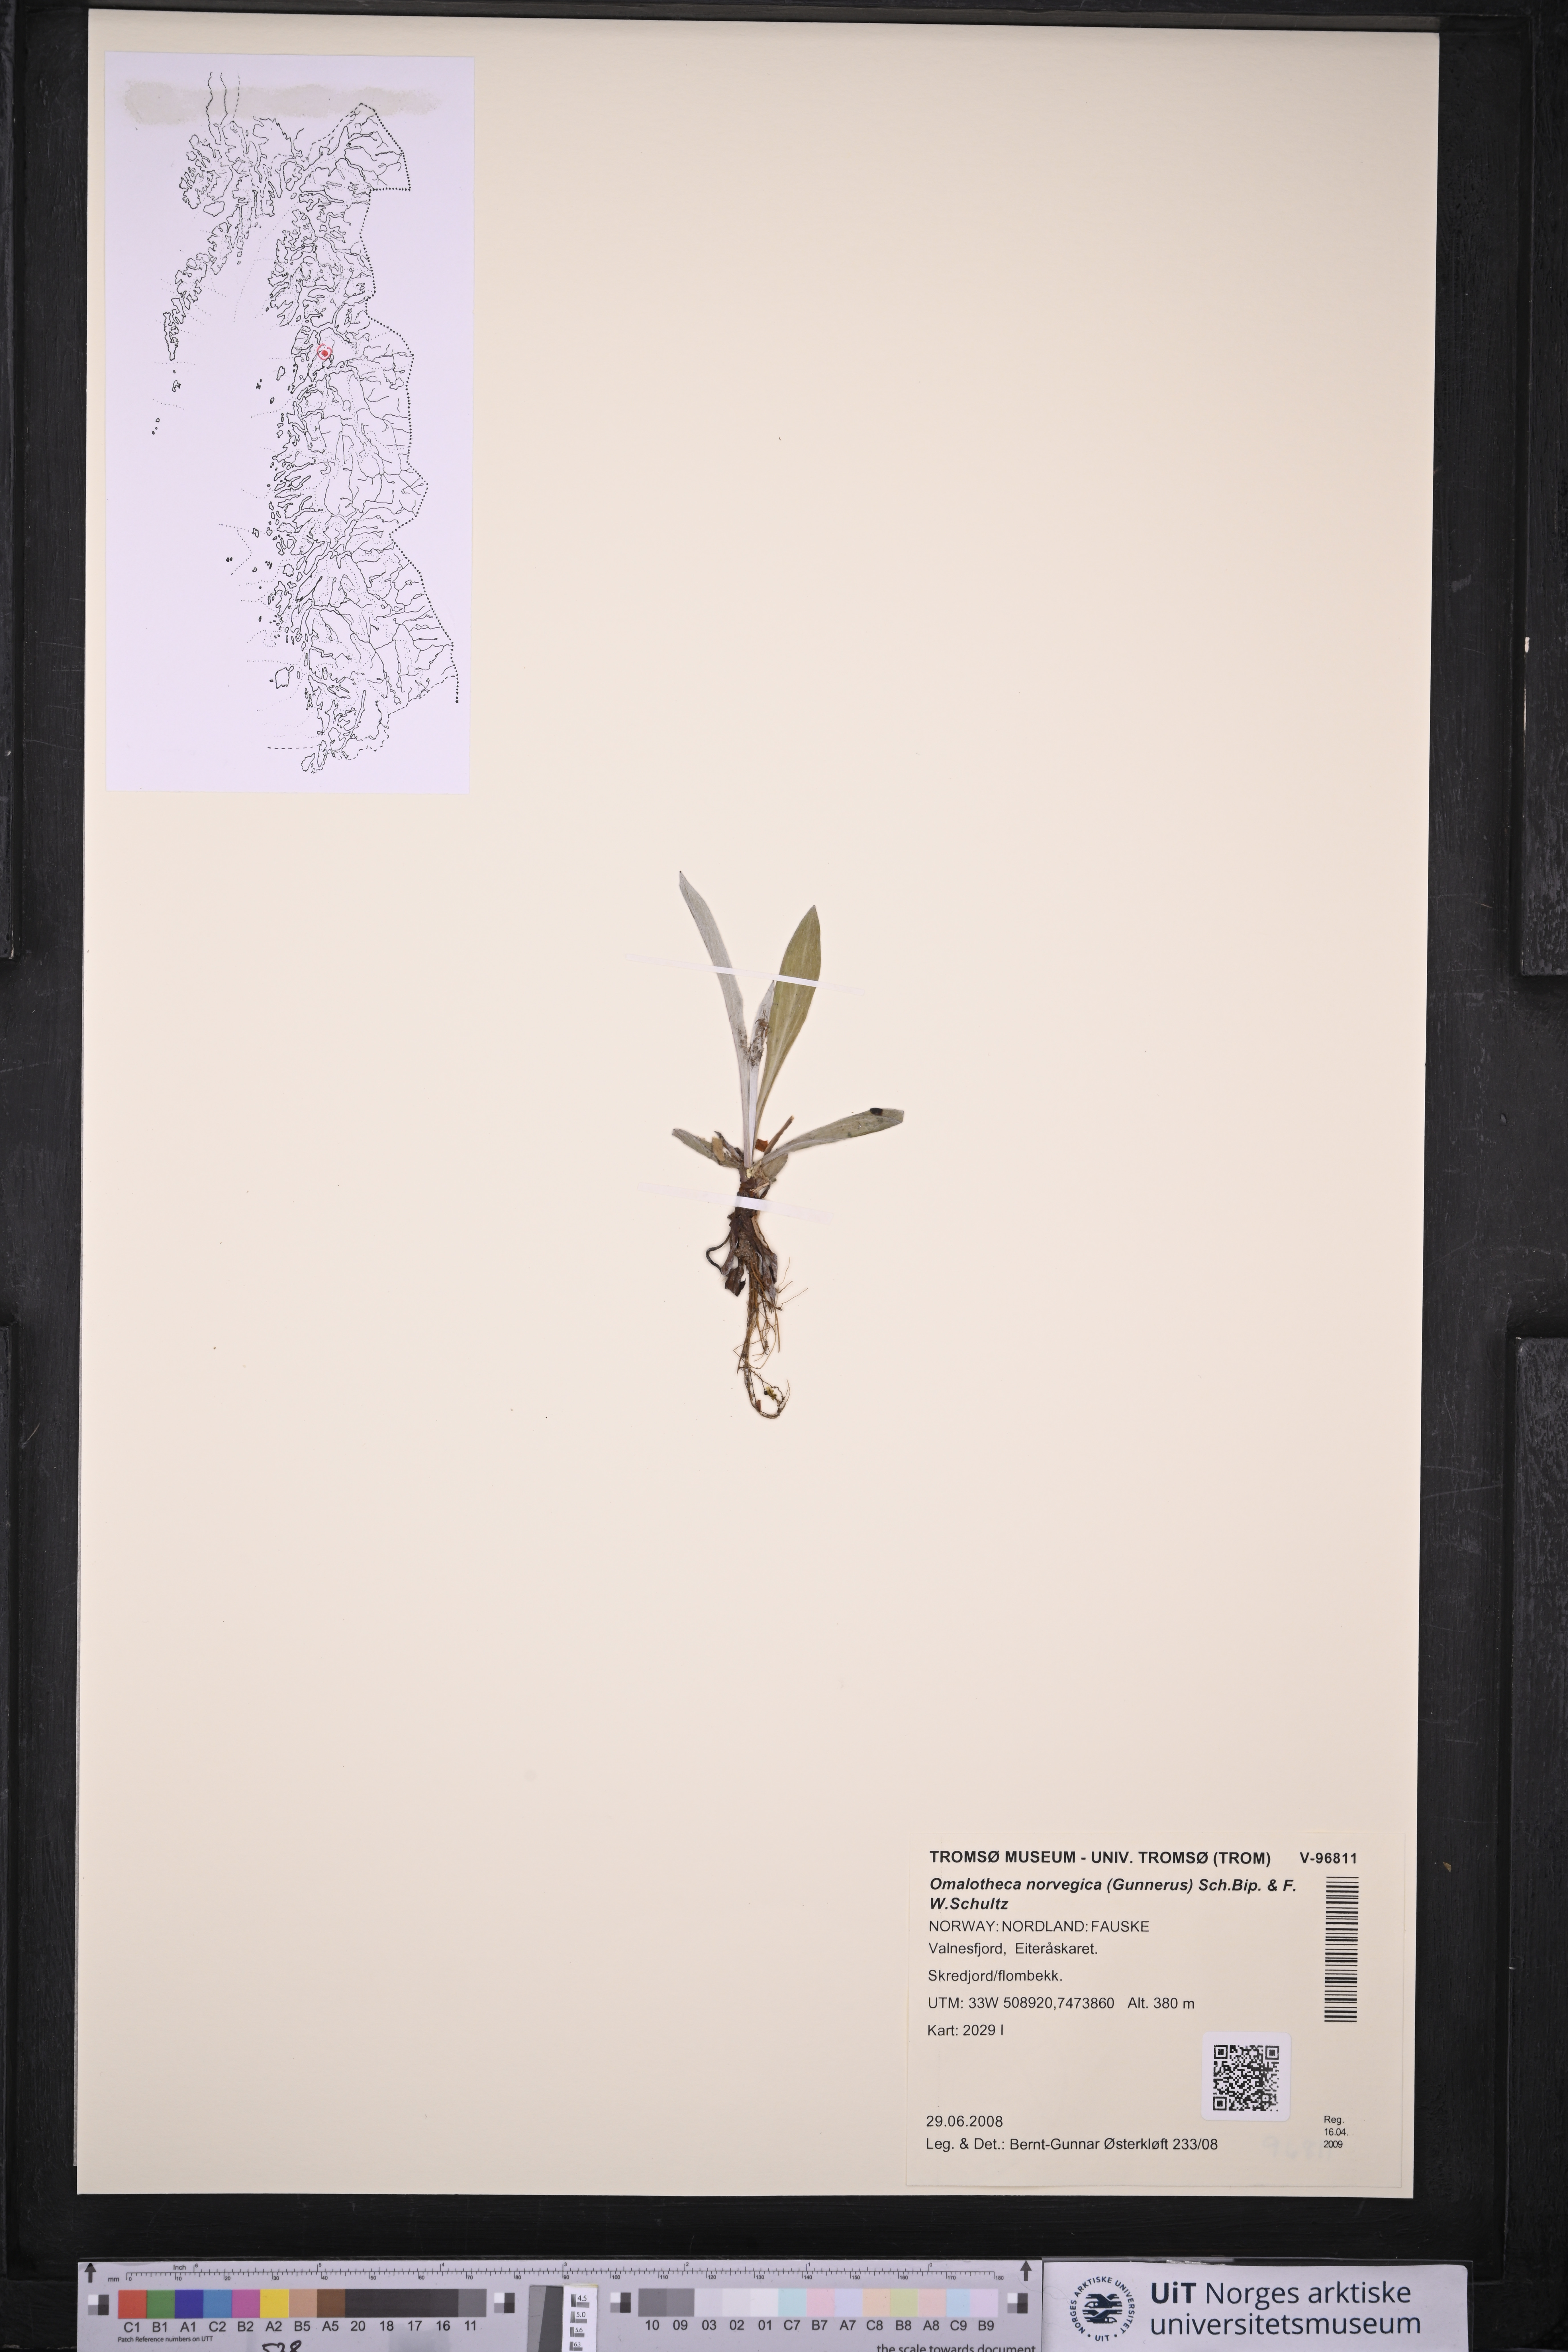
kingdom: Plantae
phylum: Tracheophyta
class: Magnoliopsida
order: Asterales
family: Asteraceae
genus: Omalotheca
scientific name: Omalotheca norvegica
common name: Norwegian arctic-cudweed
